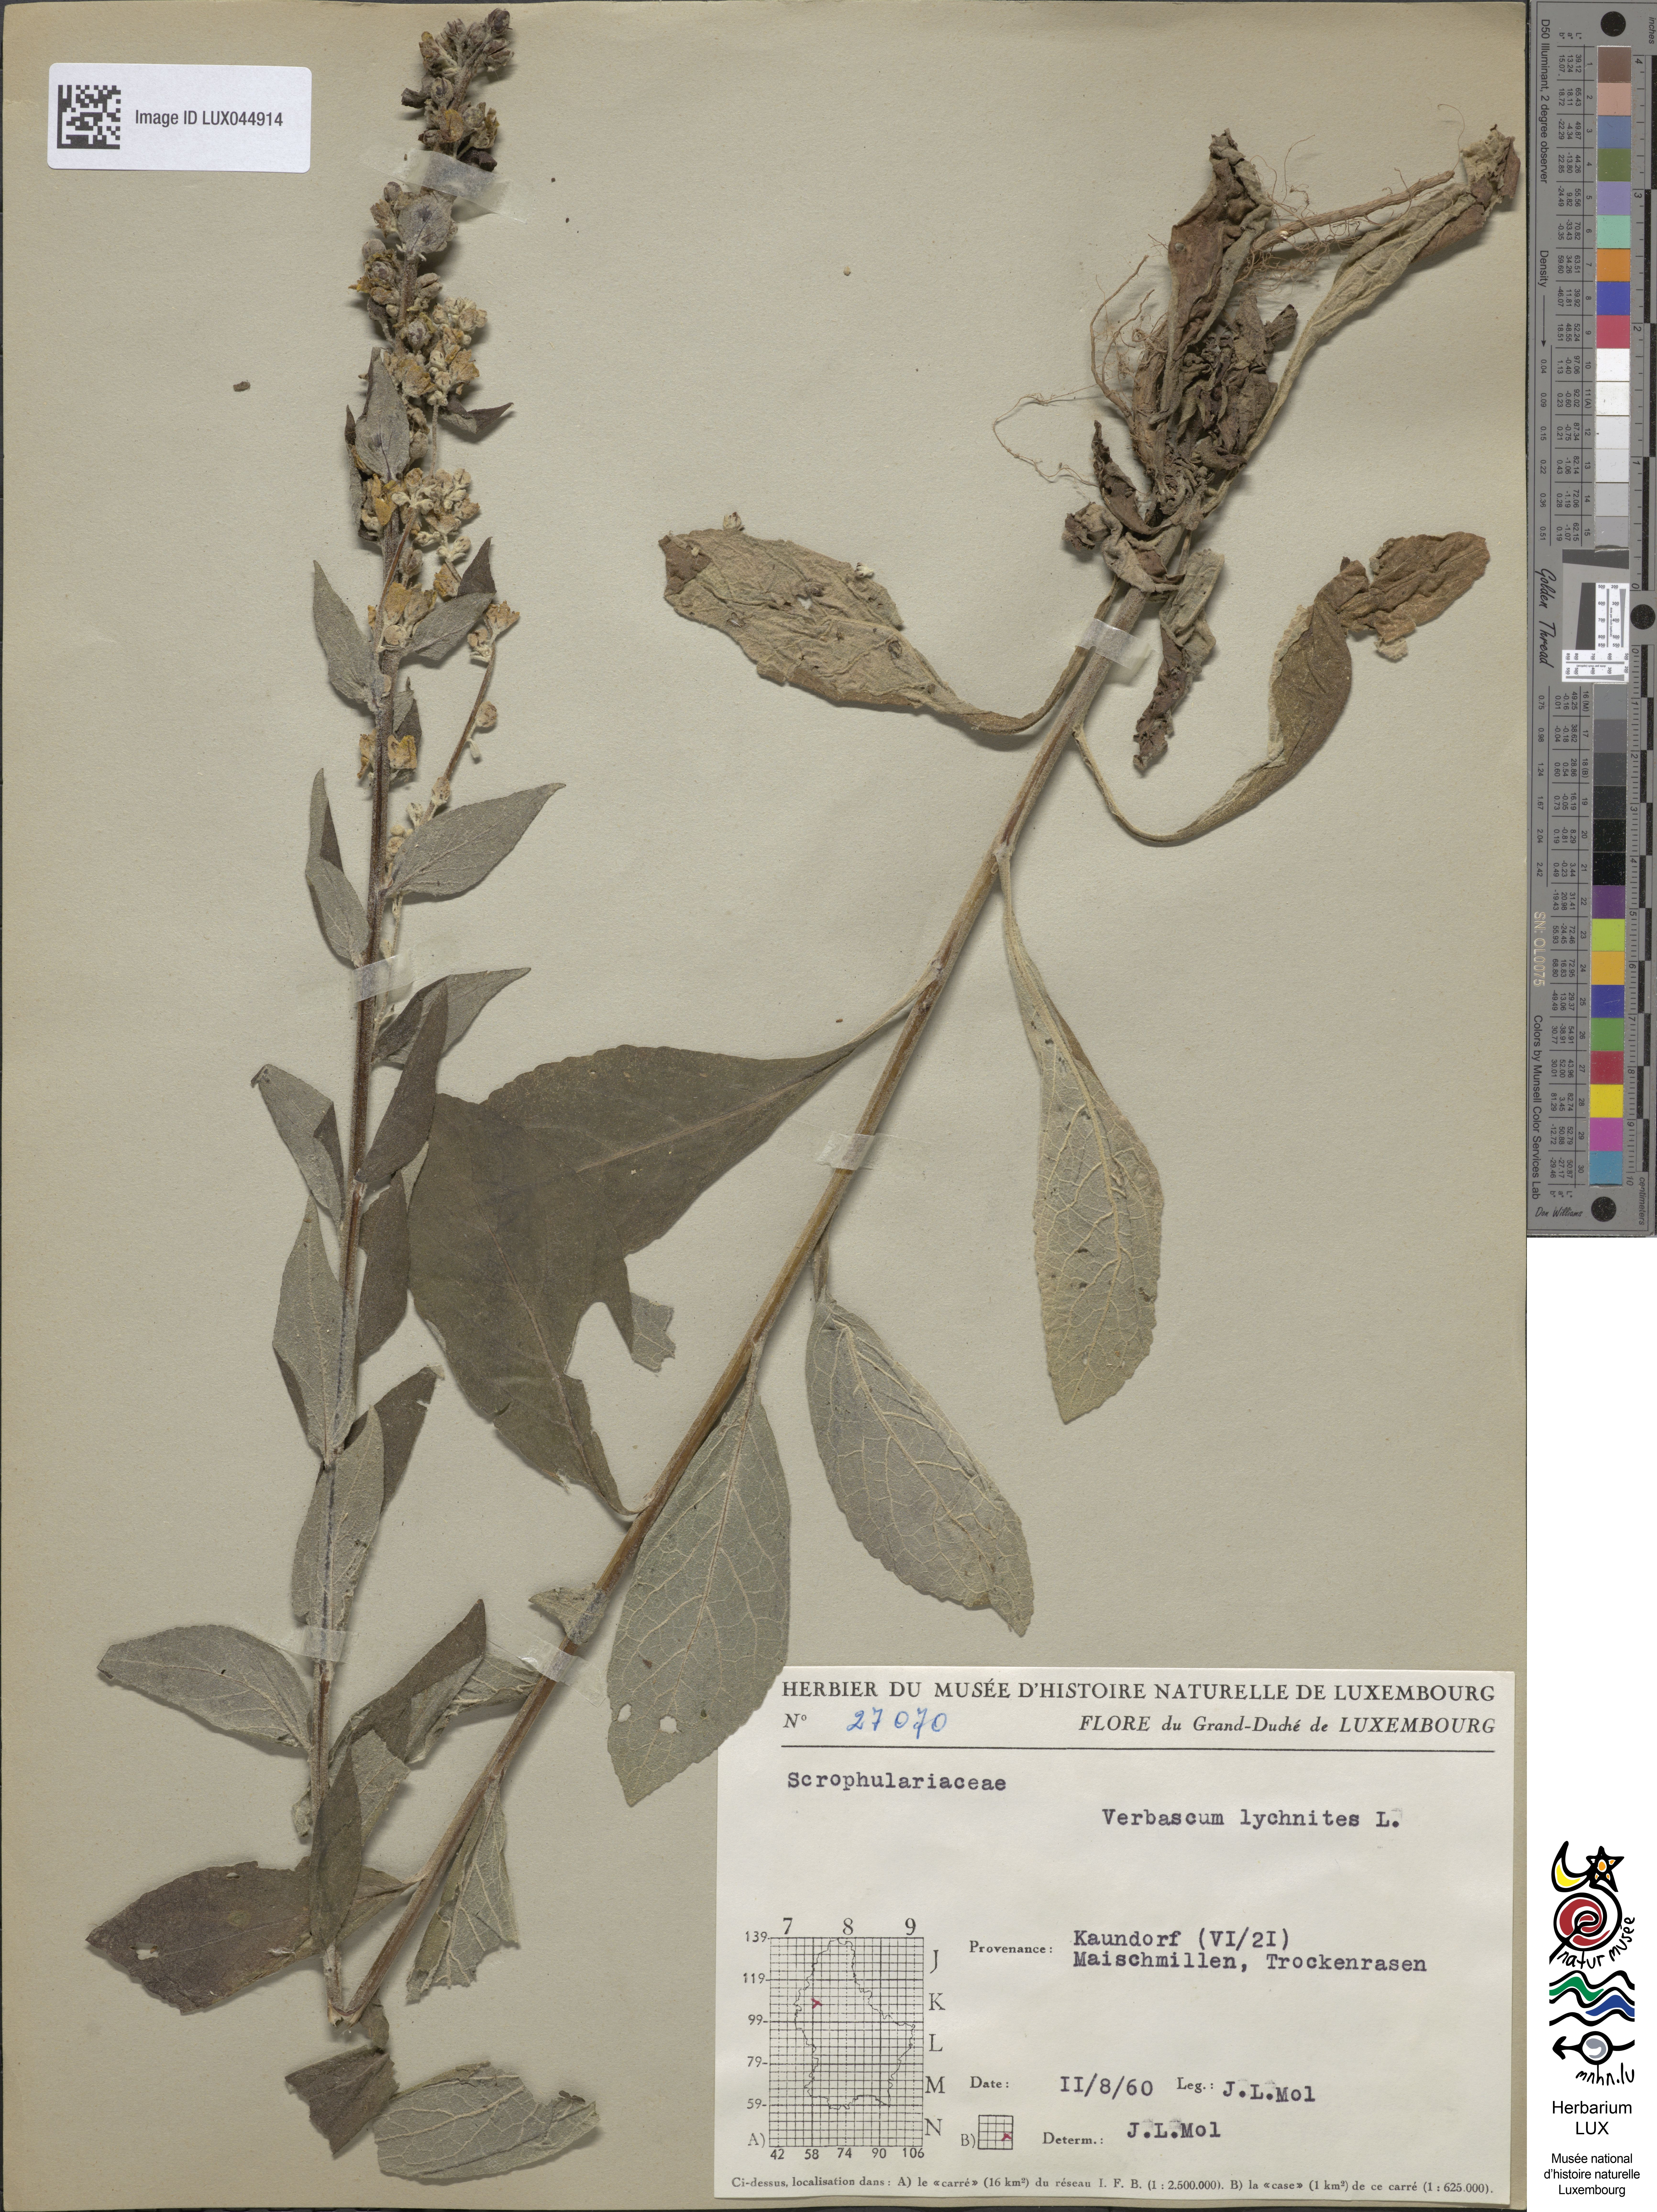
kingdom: Plantae
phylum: Tracheophyta
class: Magnoliopsida
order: Lamiales
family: Scrophulariaceae
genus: Verbascum
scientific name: Verbascum lychnitis
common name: White mullein
